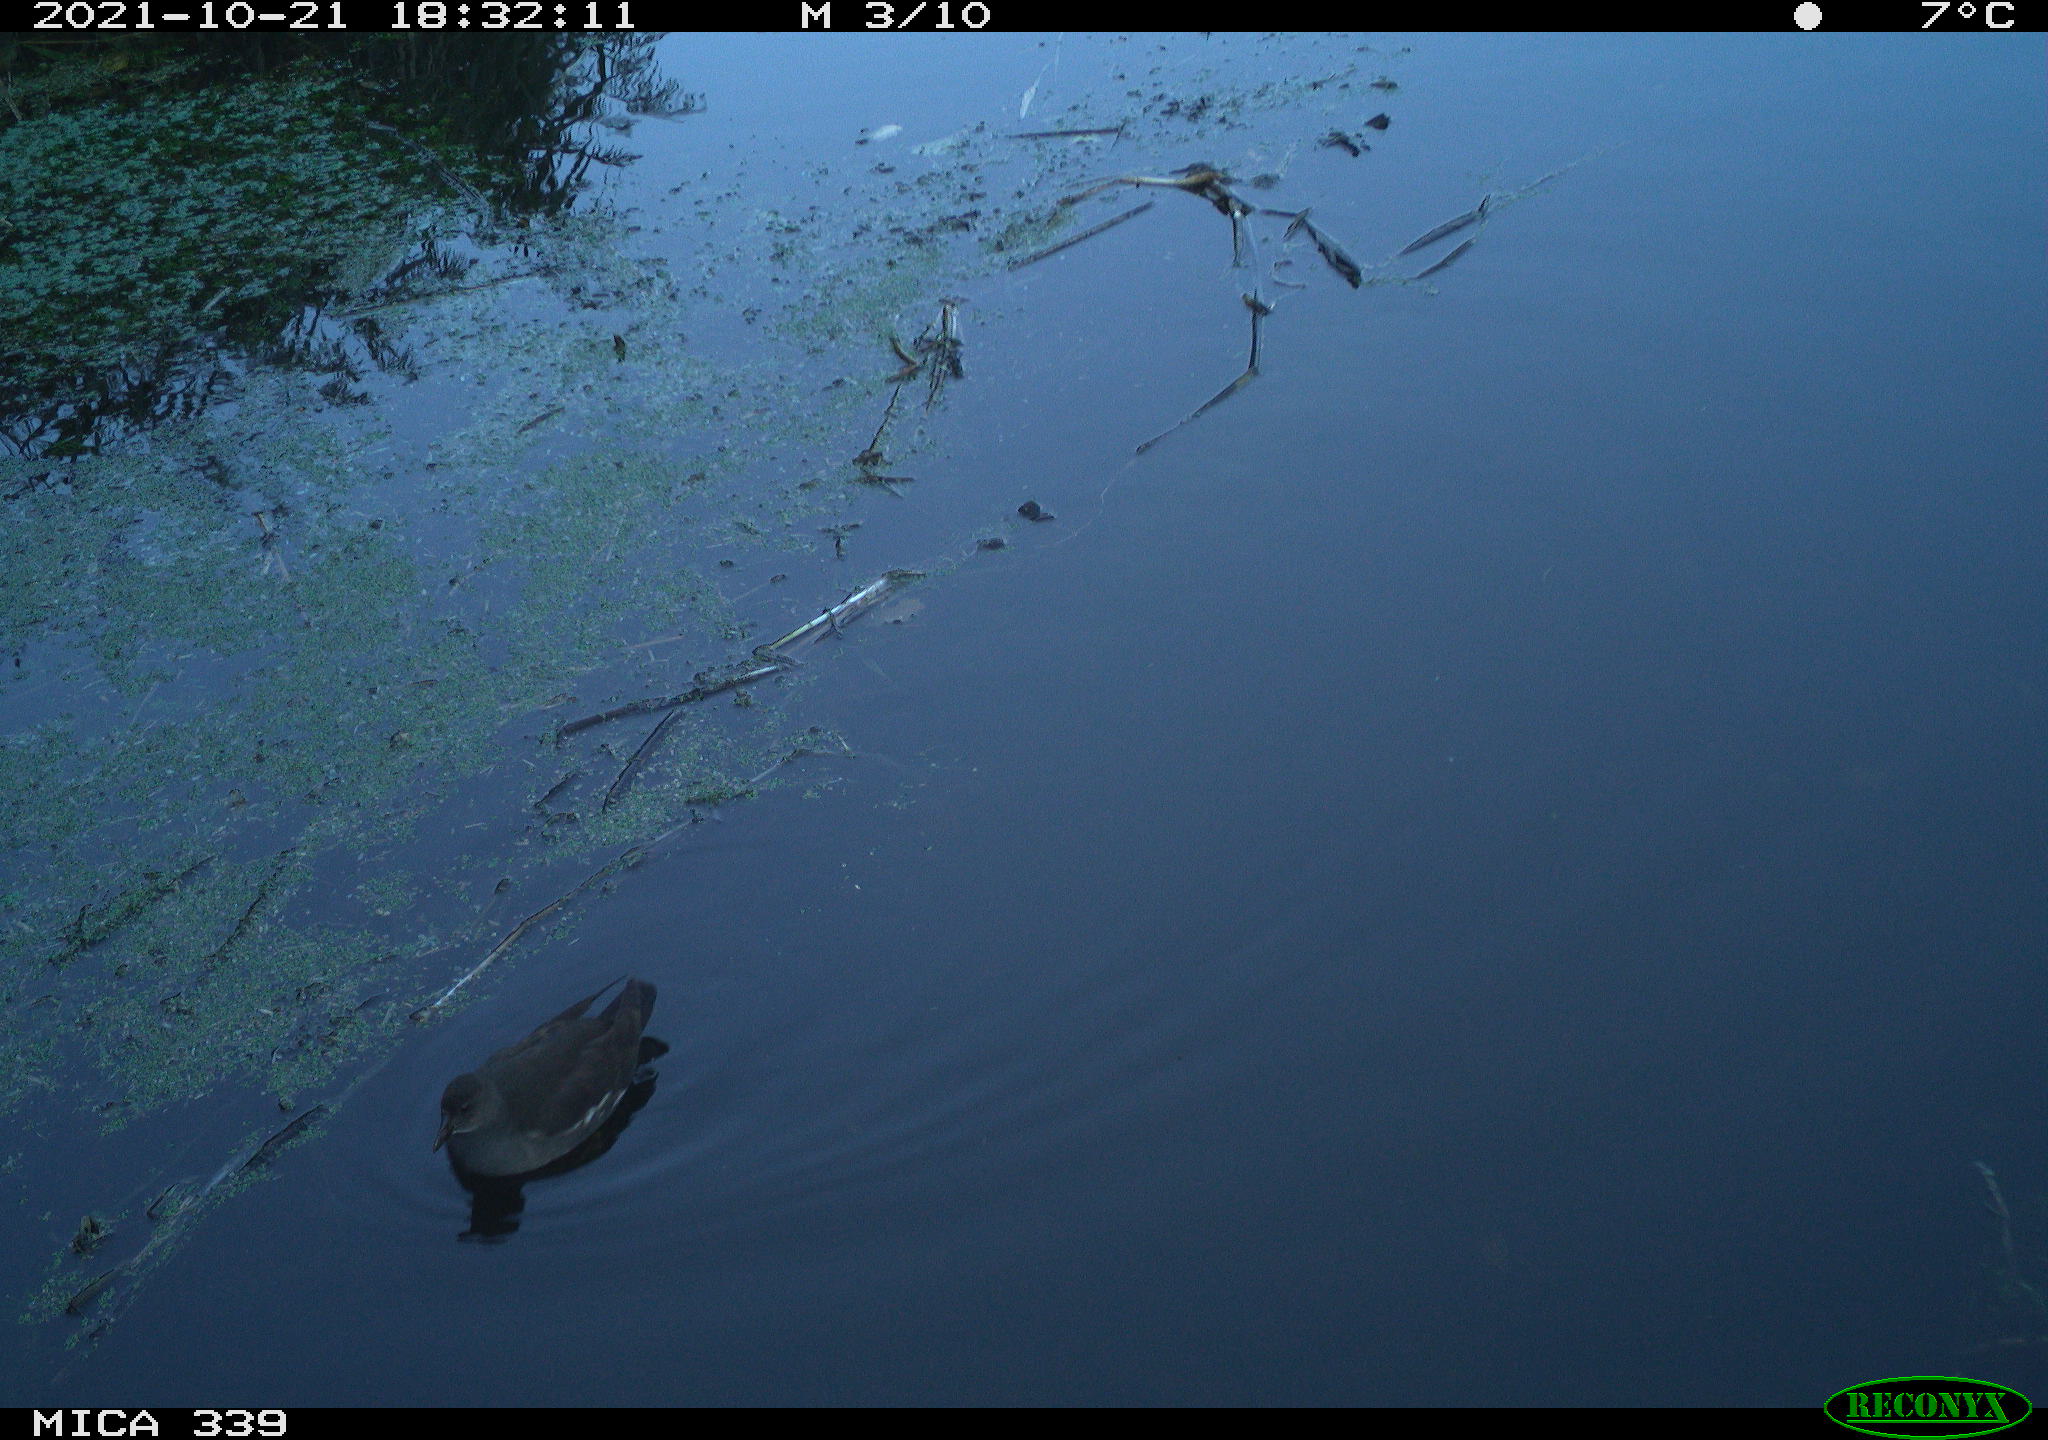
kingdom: Animalia
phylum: Chordata
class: Aves
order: Gruiformes
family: Rallidae
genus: Gallinula
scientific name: Gallinula chloropus
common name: Common moorhen
